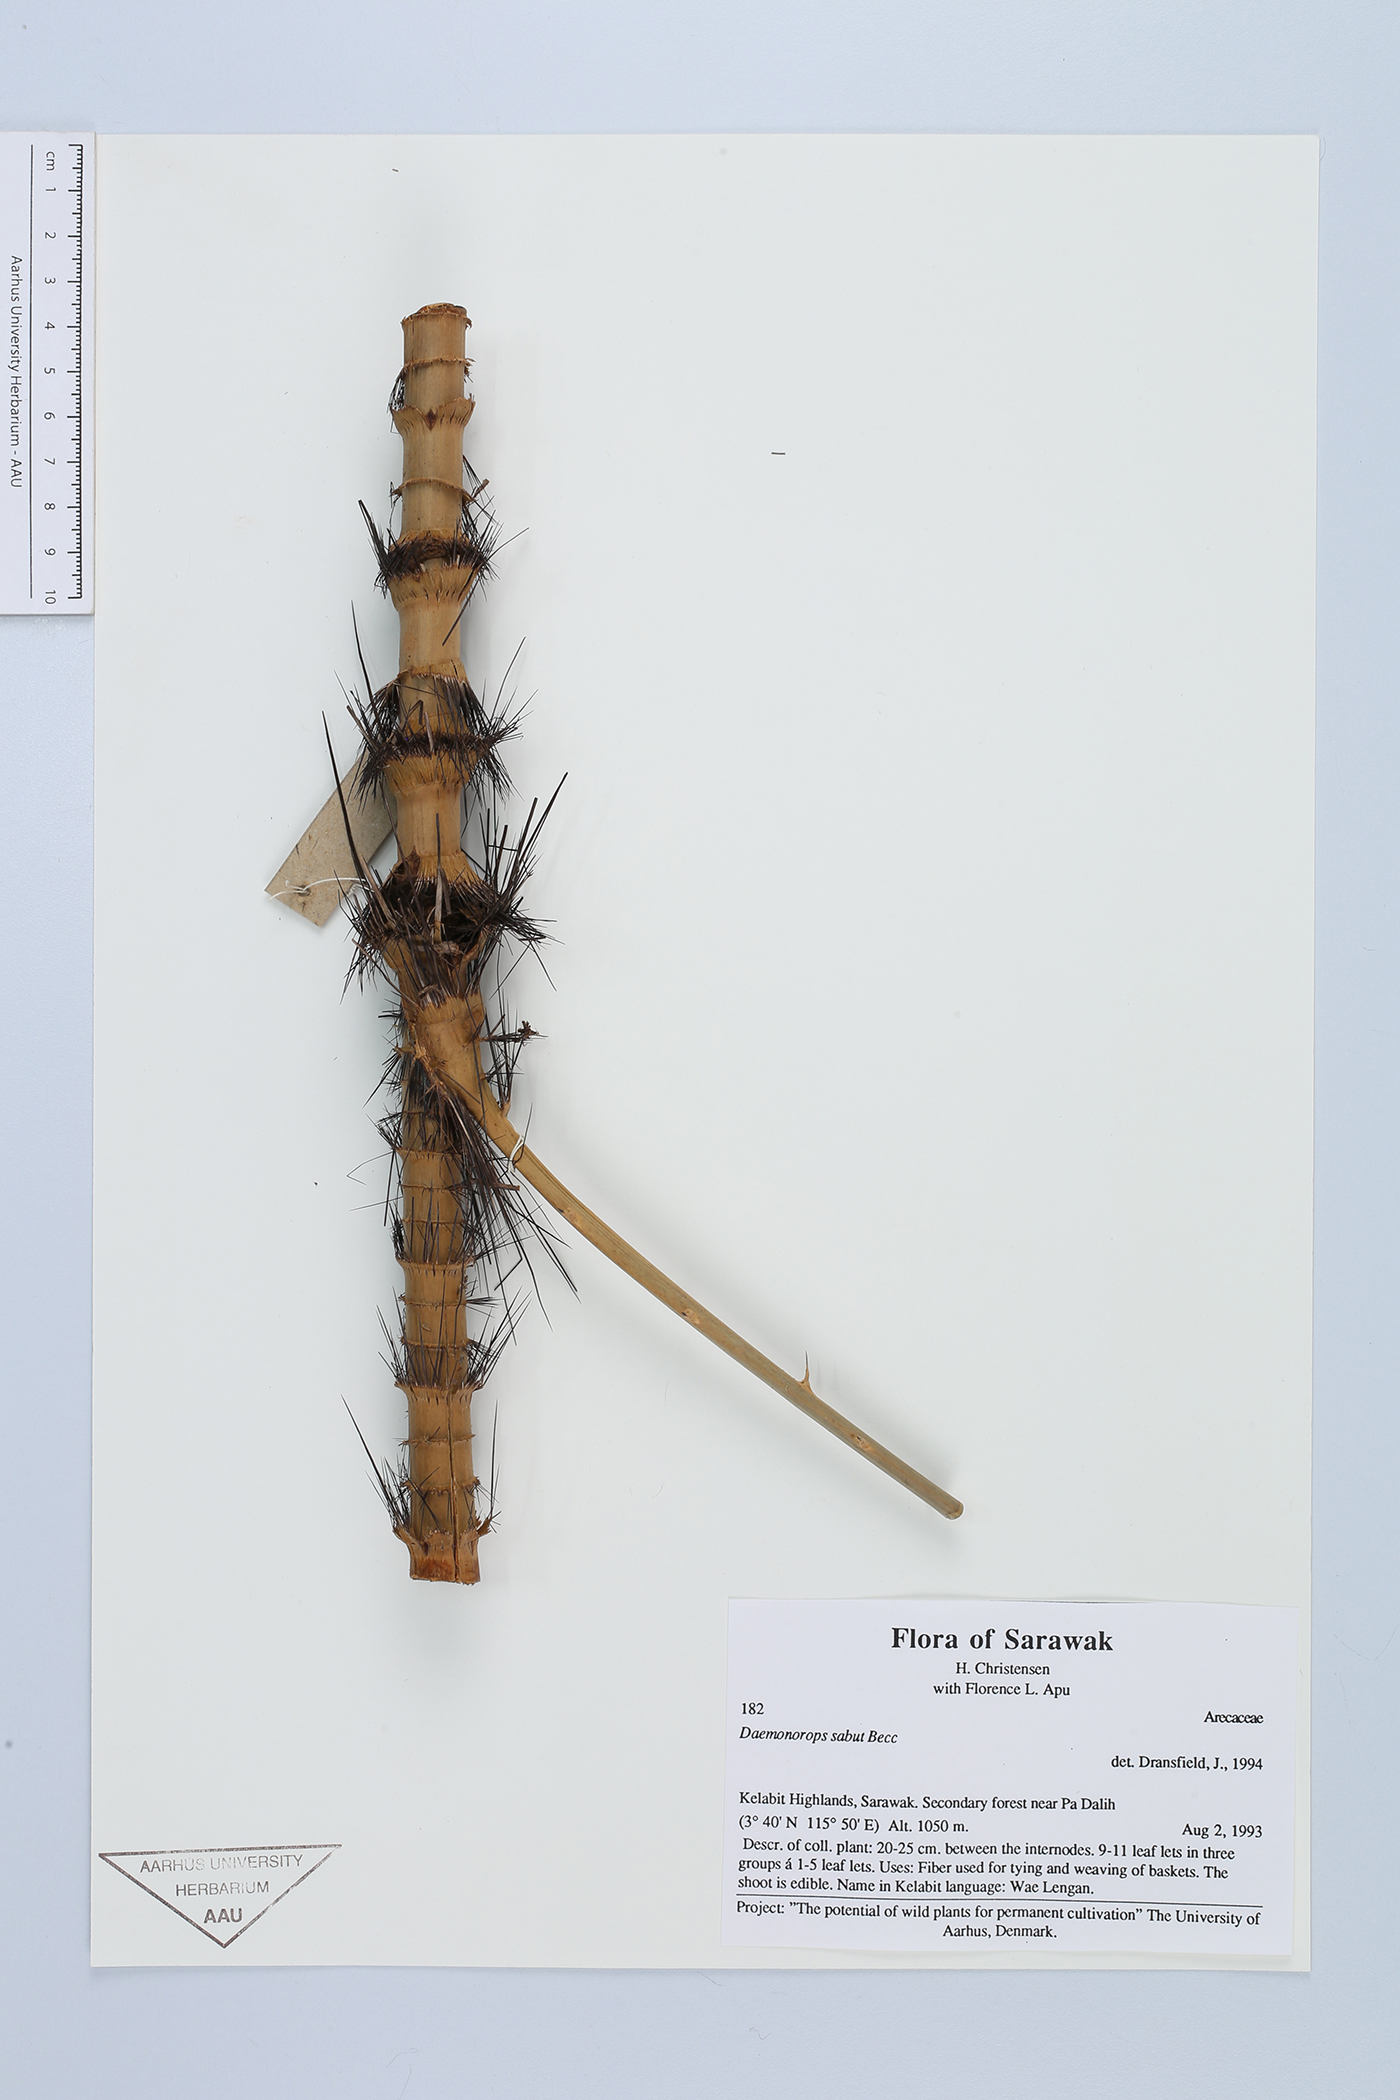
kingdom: Plantae
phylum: Tracheophyta
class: Liliopsida
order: Arecales
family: Arecaceae
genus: Calamus
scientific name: Calamus crinitus
